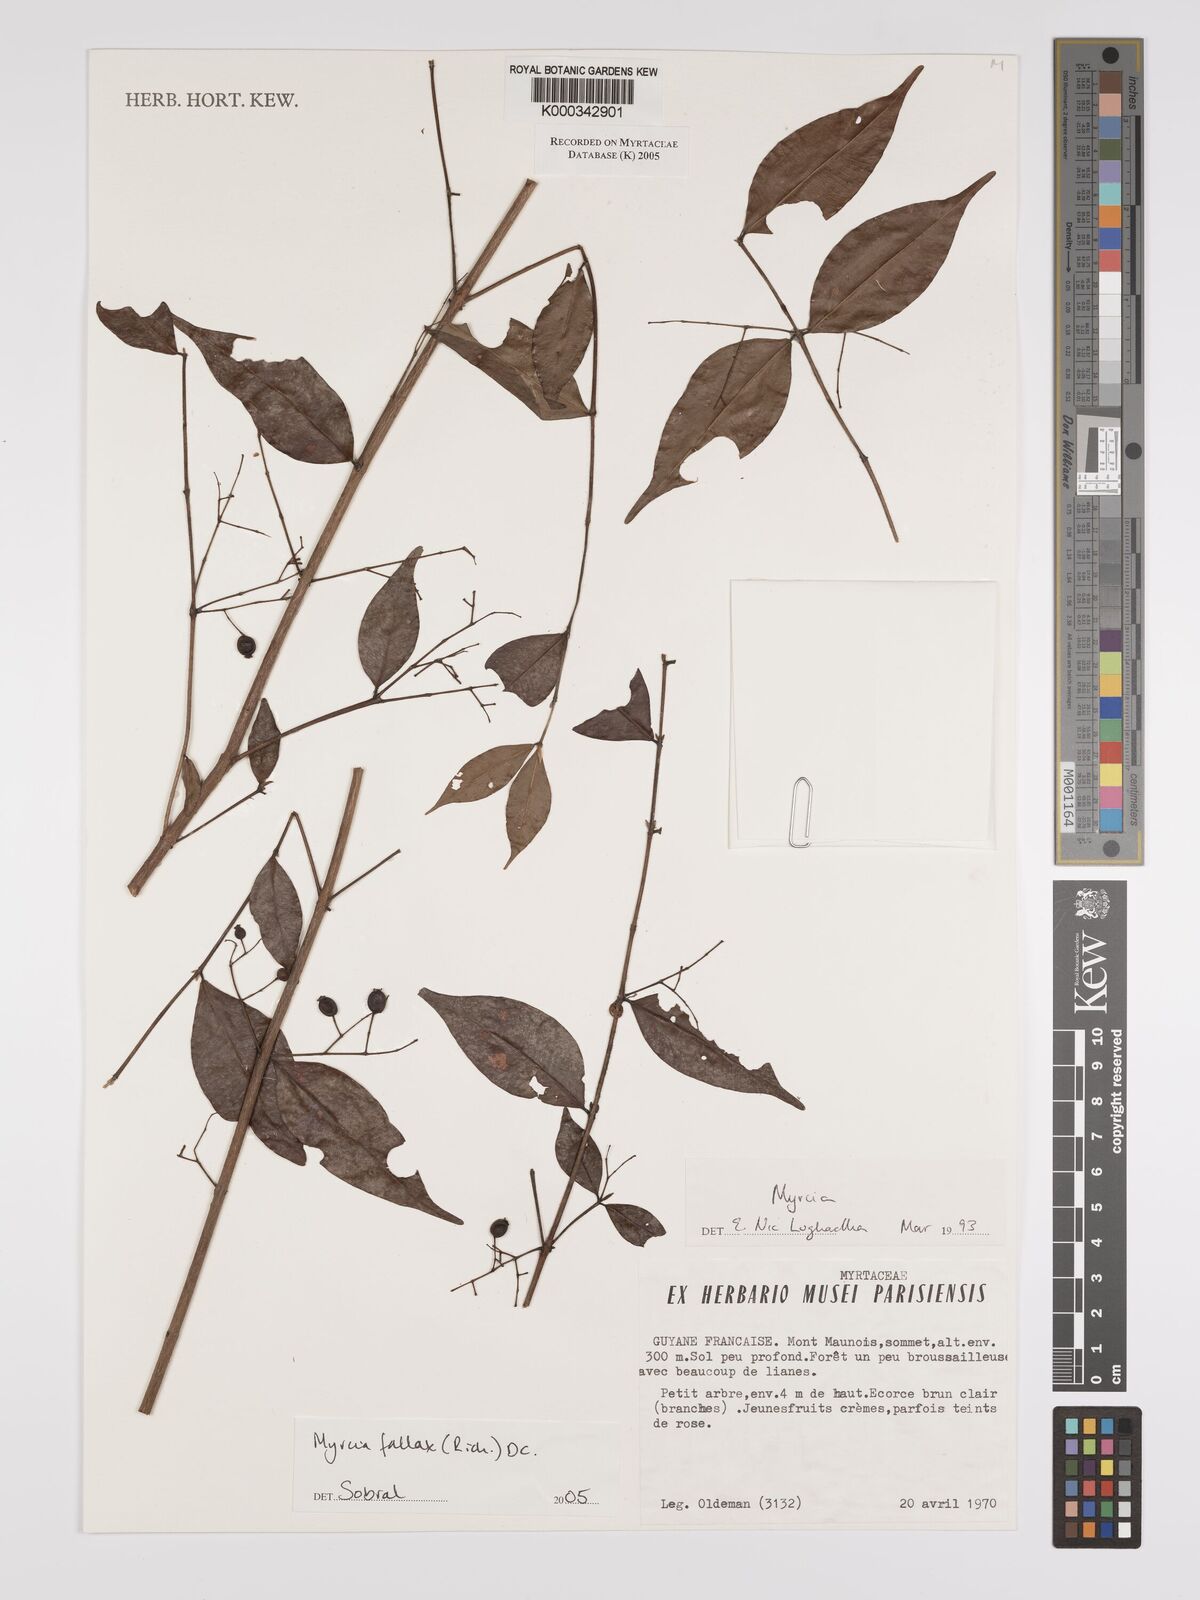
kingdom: Plantae
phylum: Tracheophyta
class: Magnoliopsida
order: Myrtales
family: Myrtaceae
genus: Myrcia
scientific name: Myrcia splendens
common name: Surinam cherry
